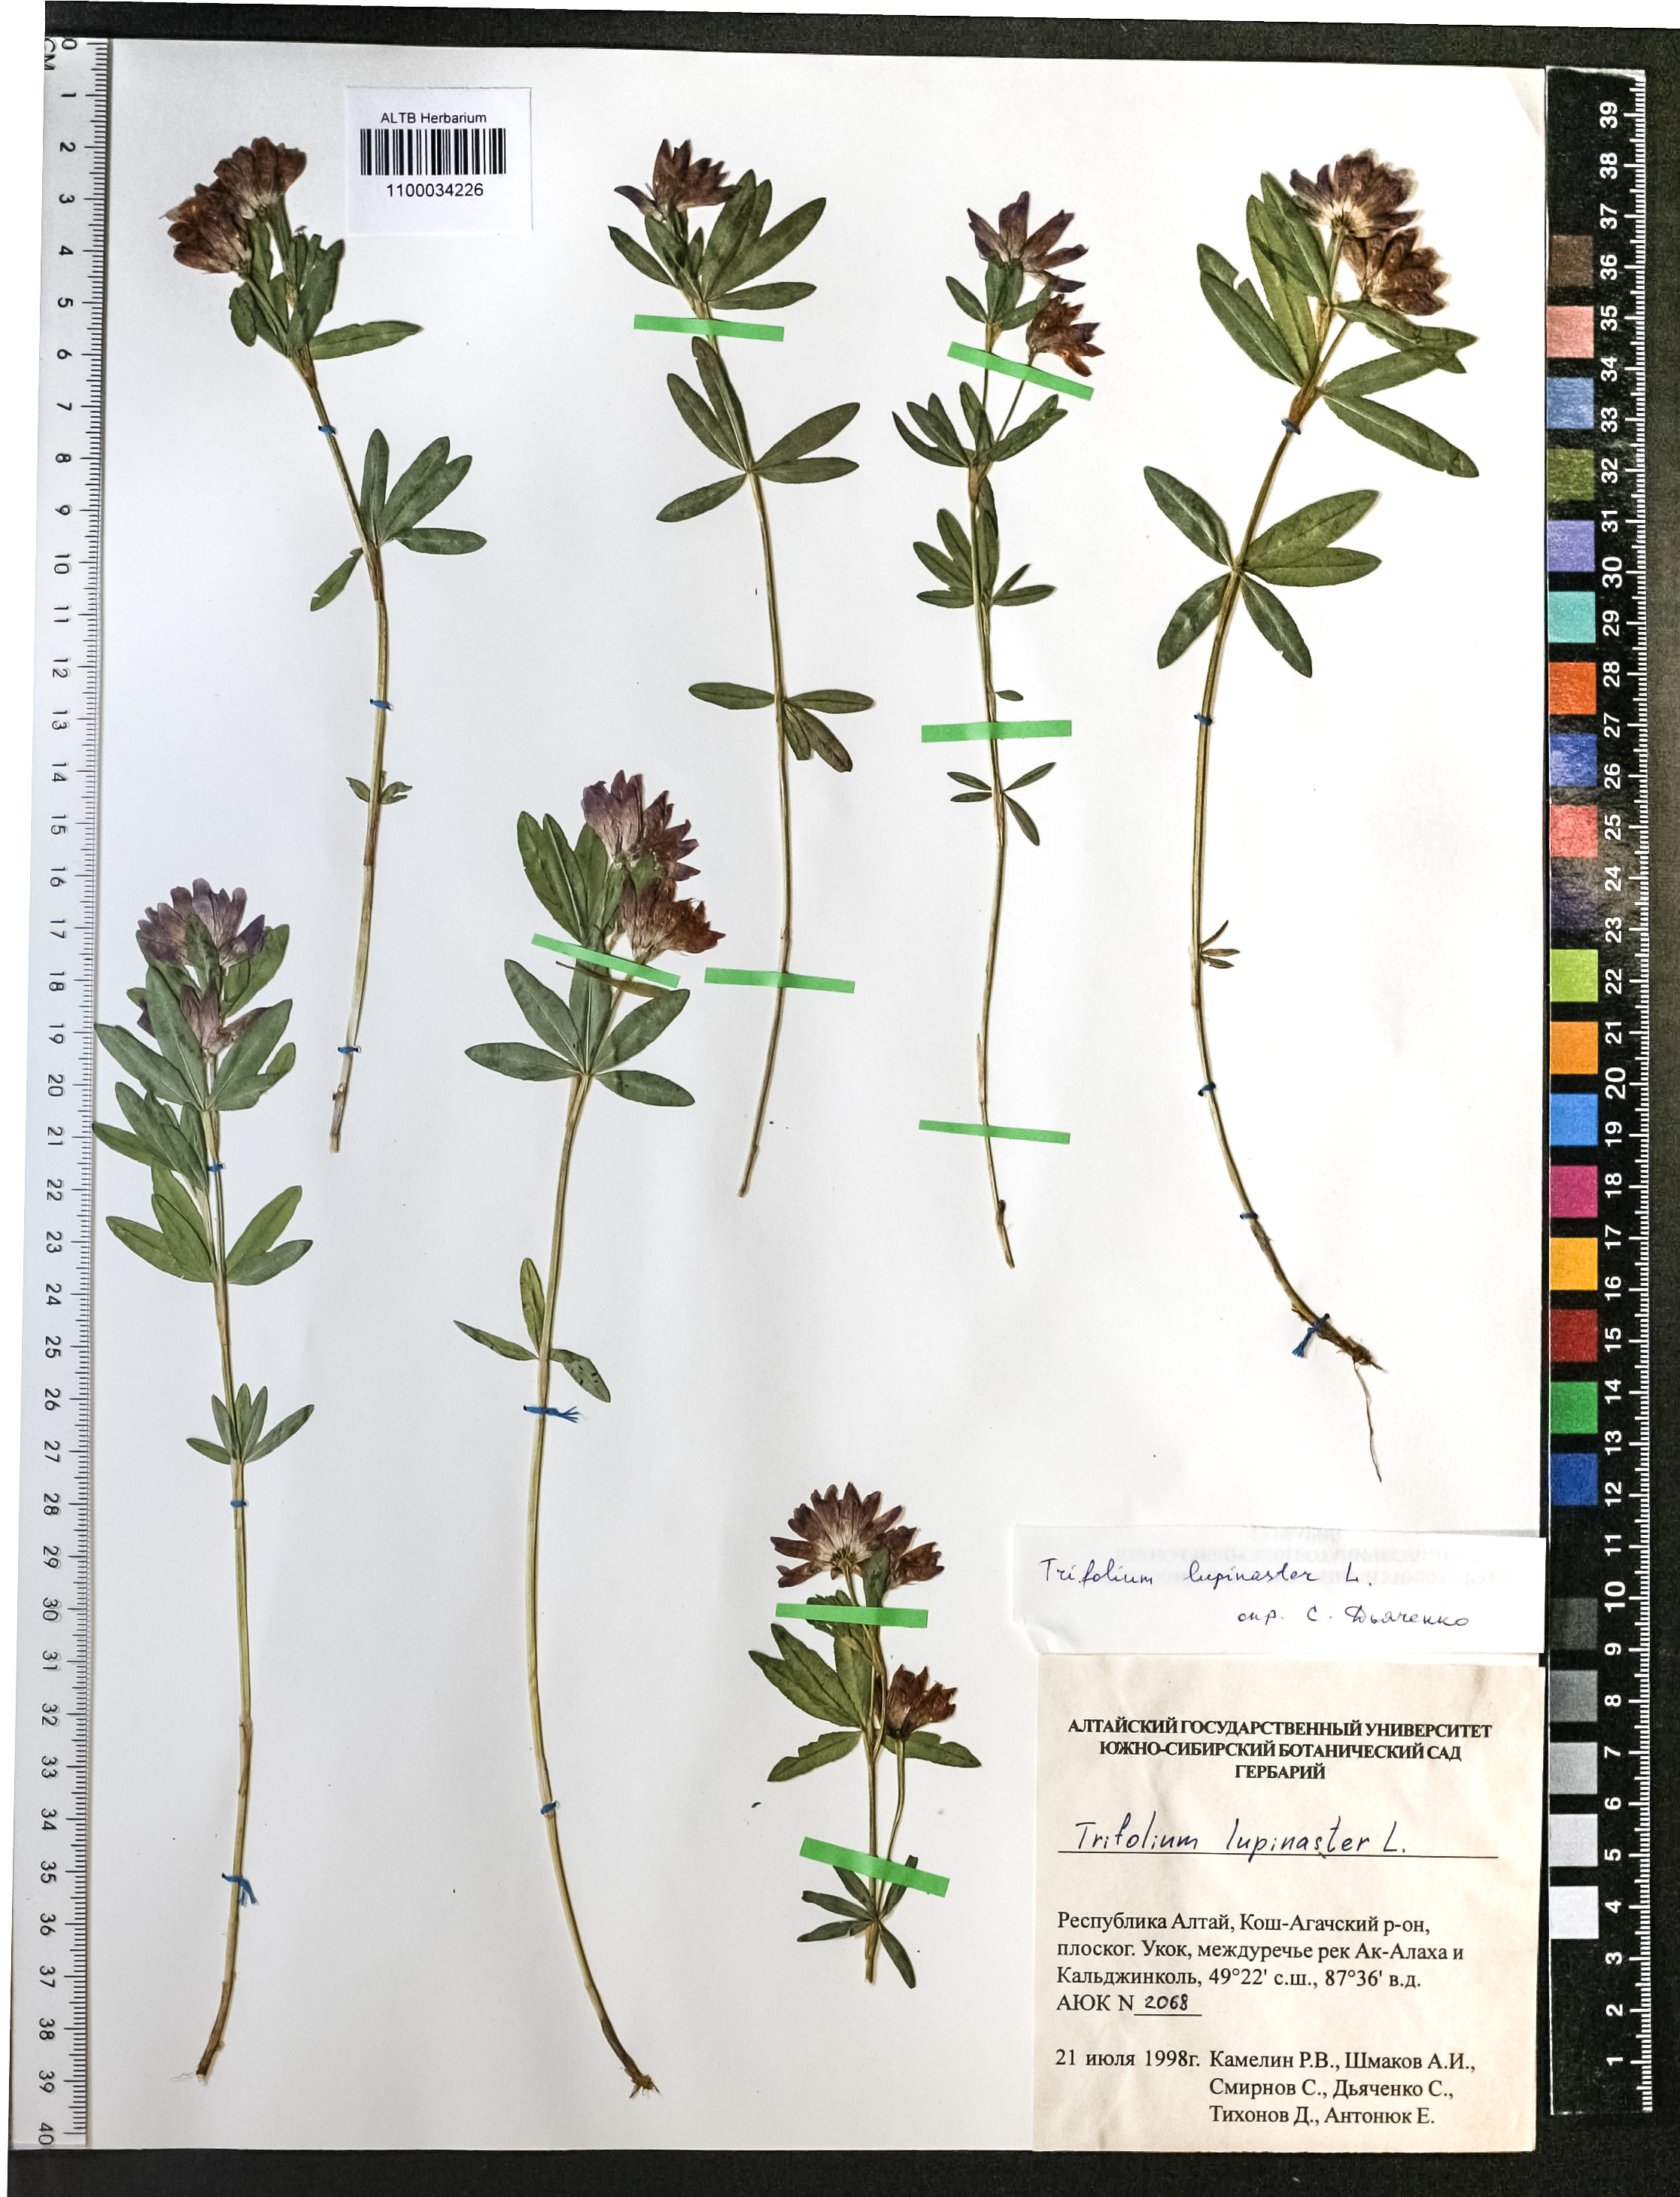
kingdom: Plantae
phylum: Tracheophyta
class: Magnoliopsida
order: Fabales
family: Fabaceae
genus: Trifolium
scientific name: Trifolium lupinaster
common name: Lupine clover
